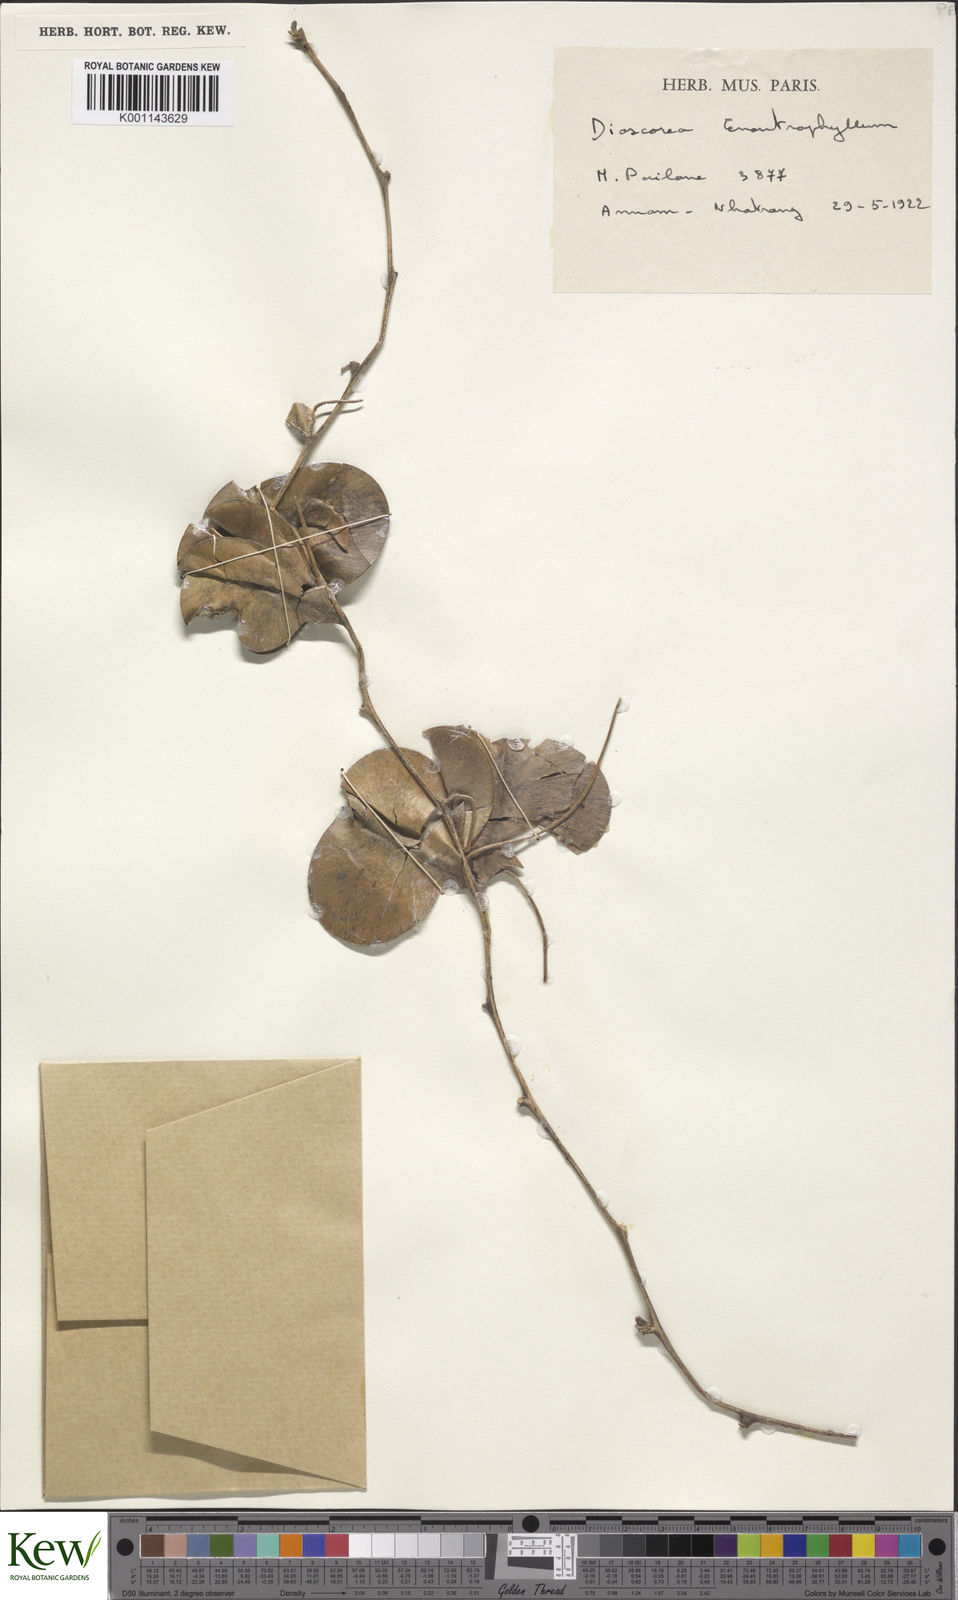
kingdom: Plantae
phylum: Tracheophyta
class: Liliopsida
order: Dioscoreales
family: Dioscoreaceae
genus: Dioscorea
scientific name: Dioscorea paradoxa
